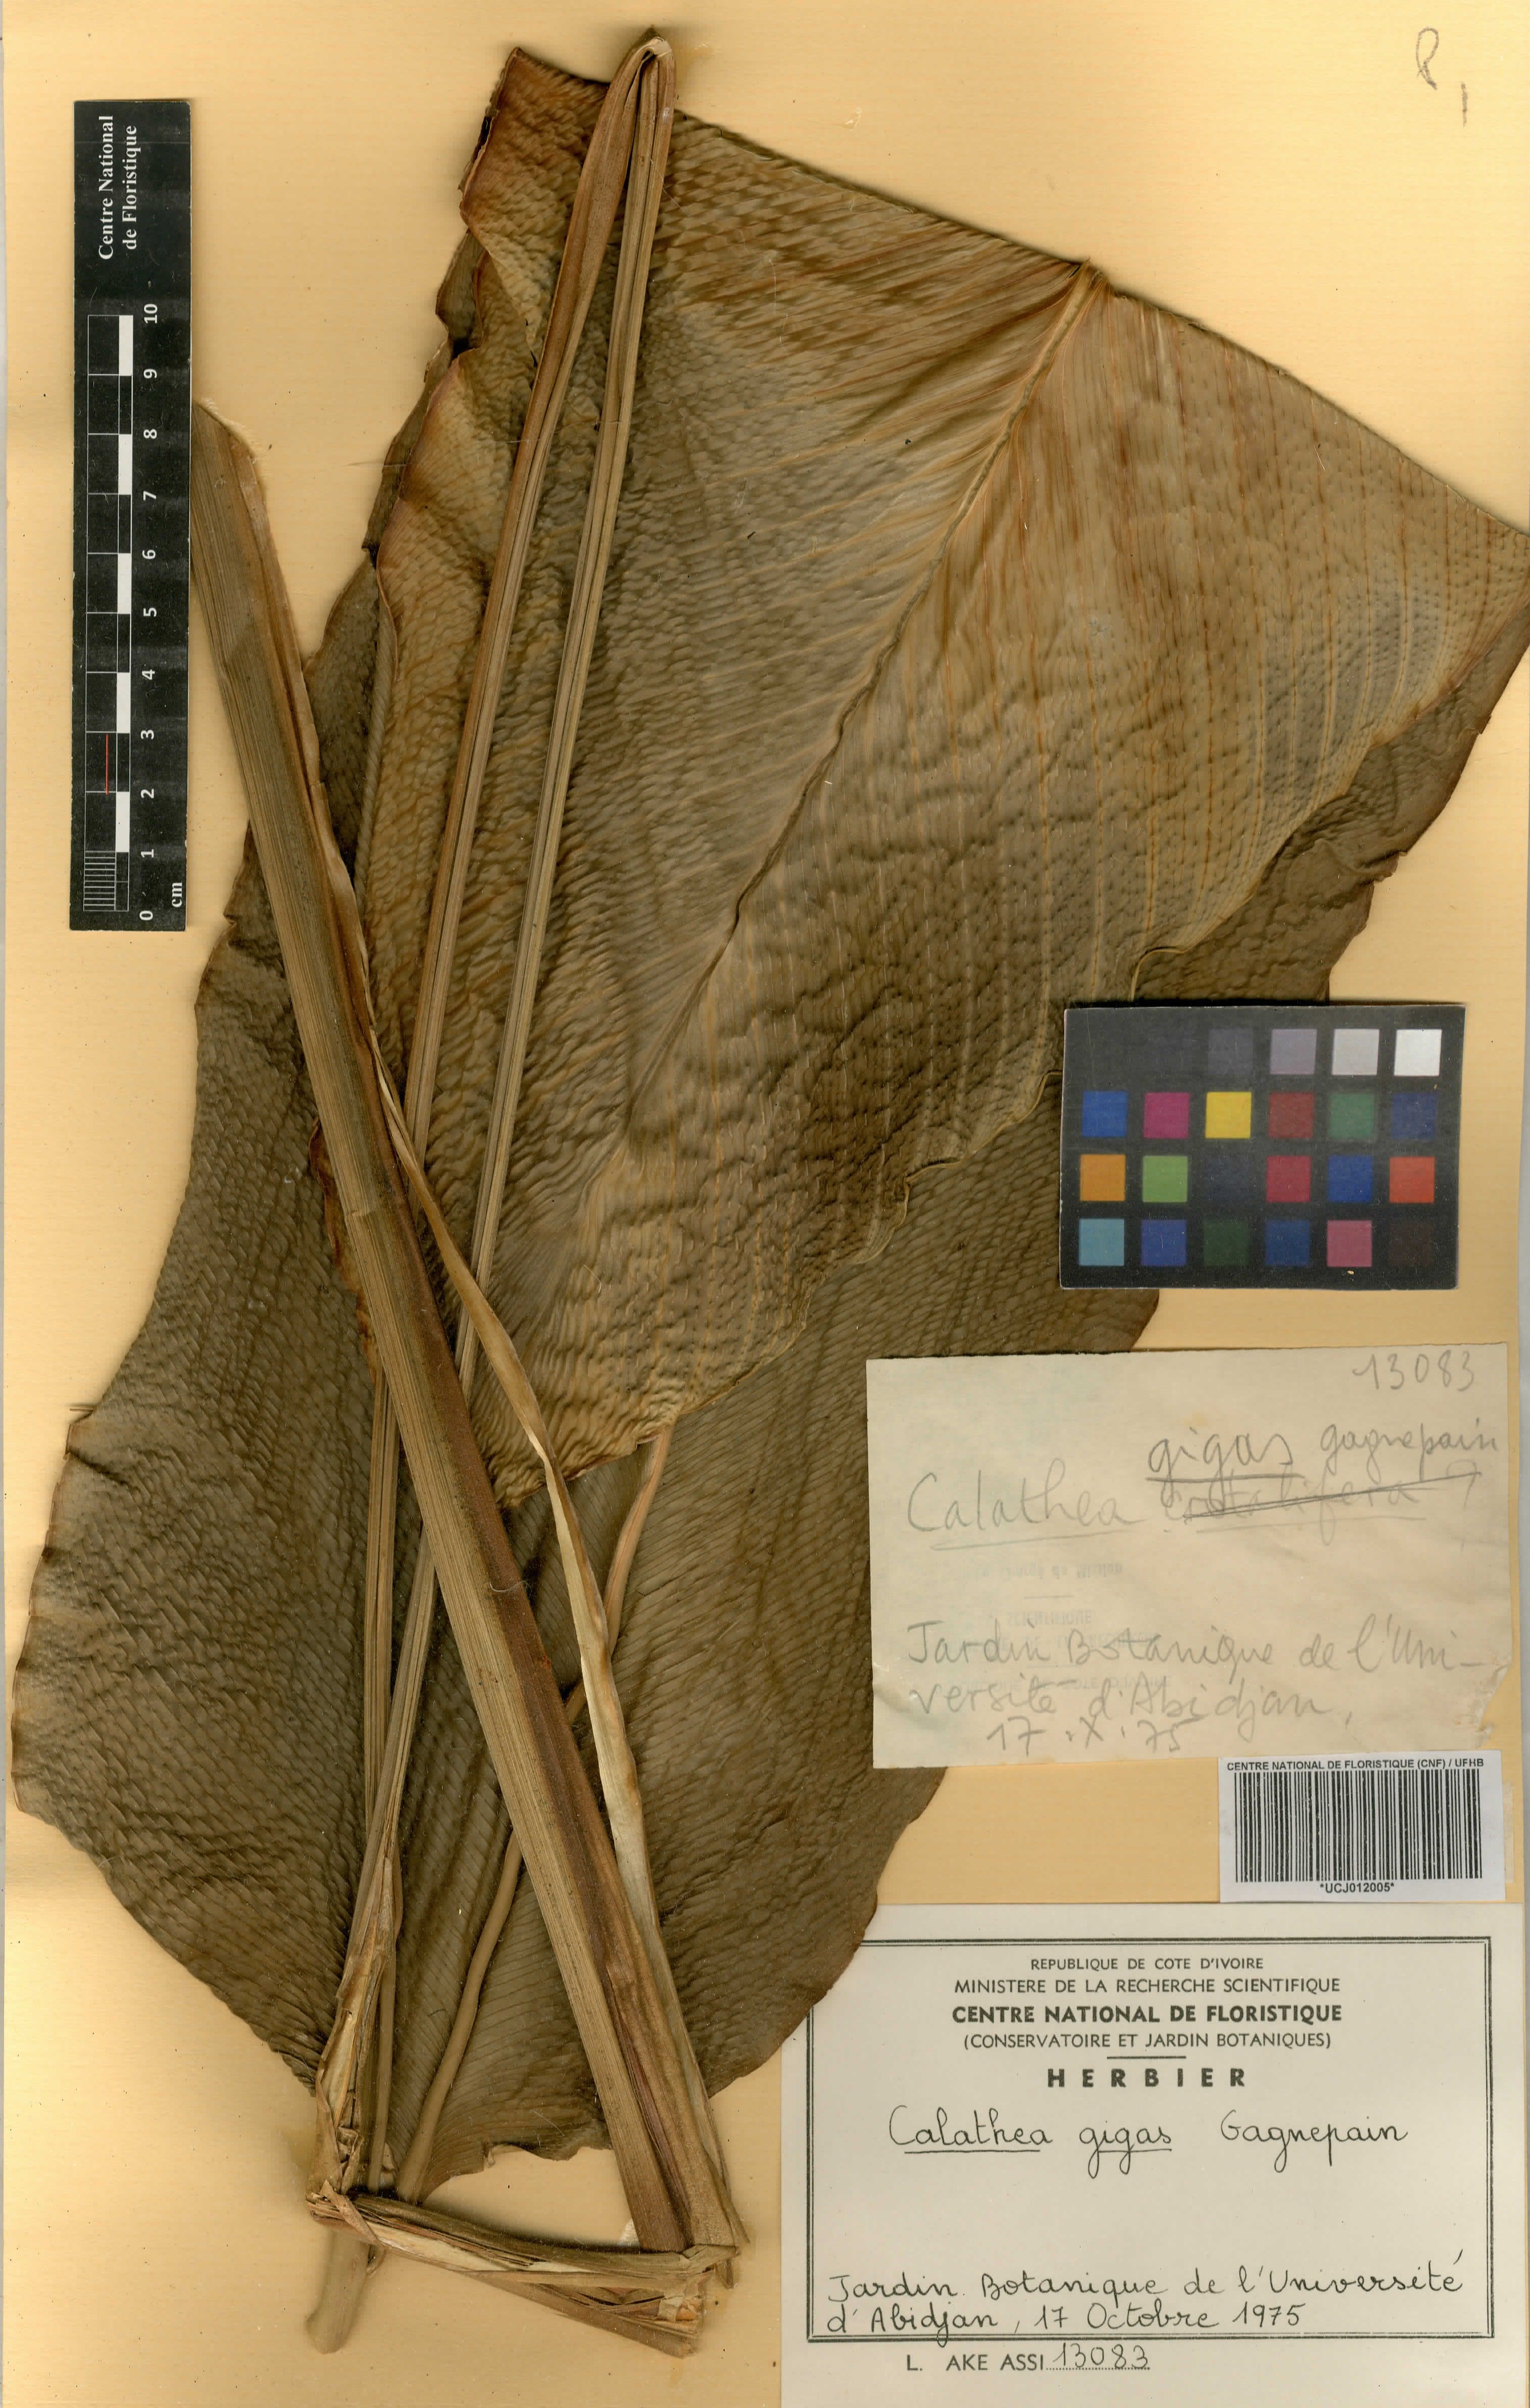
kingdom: Plantae
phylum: Tracheophyta
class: Liliopsida
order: Zingiberales
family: Marantaceae
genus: Goeppertia
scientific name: Goeppertia majestica
